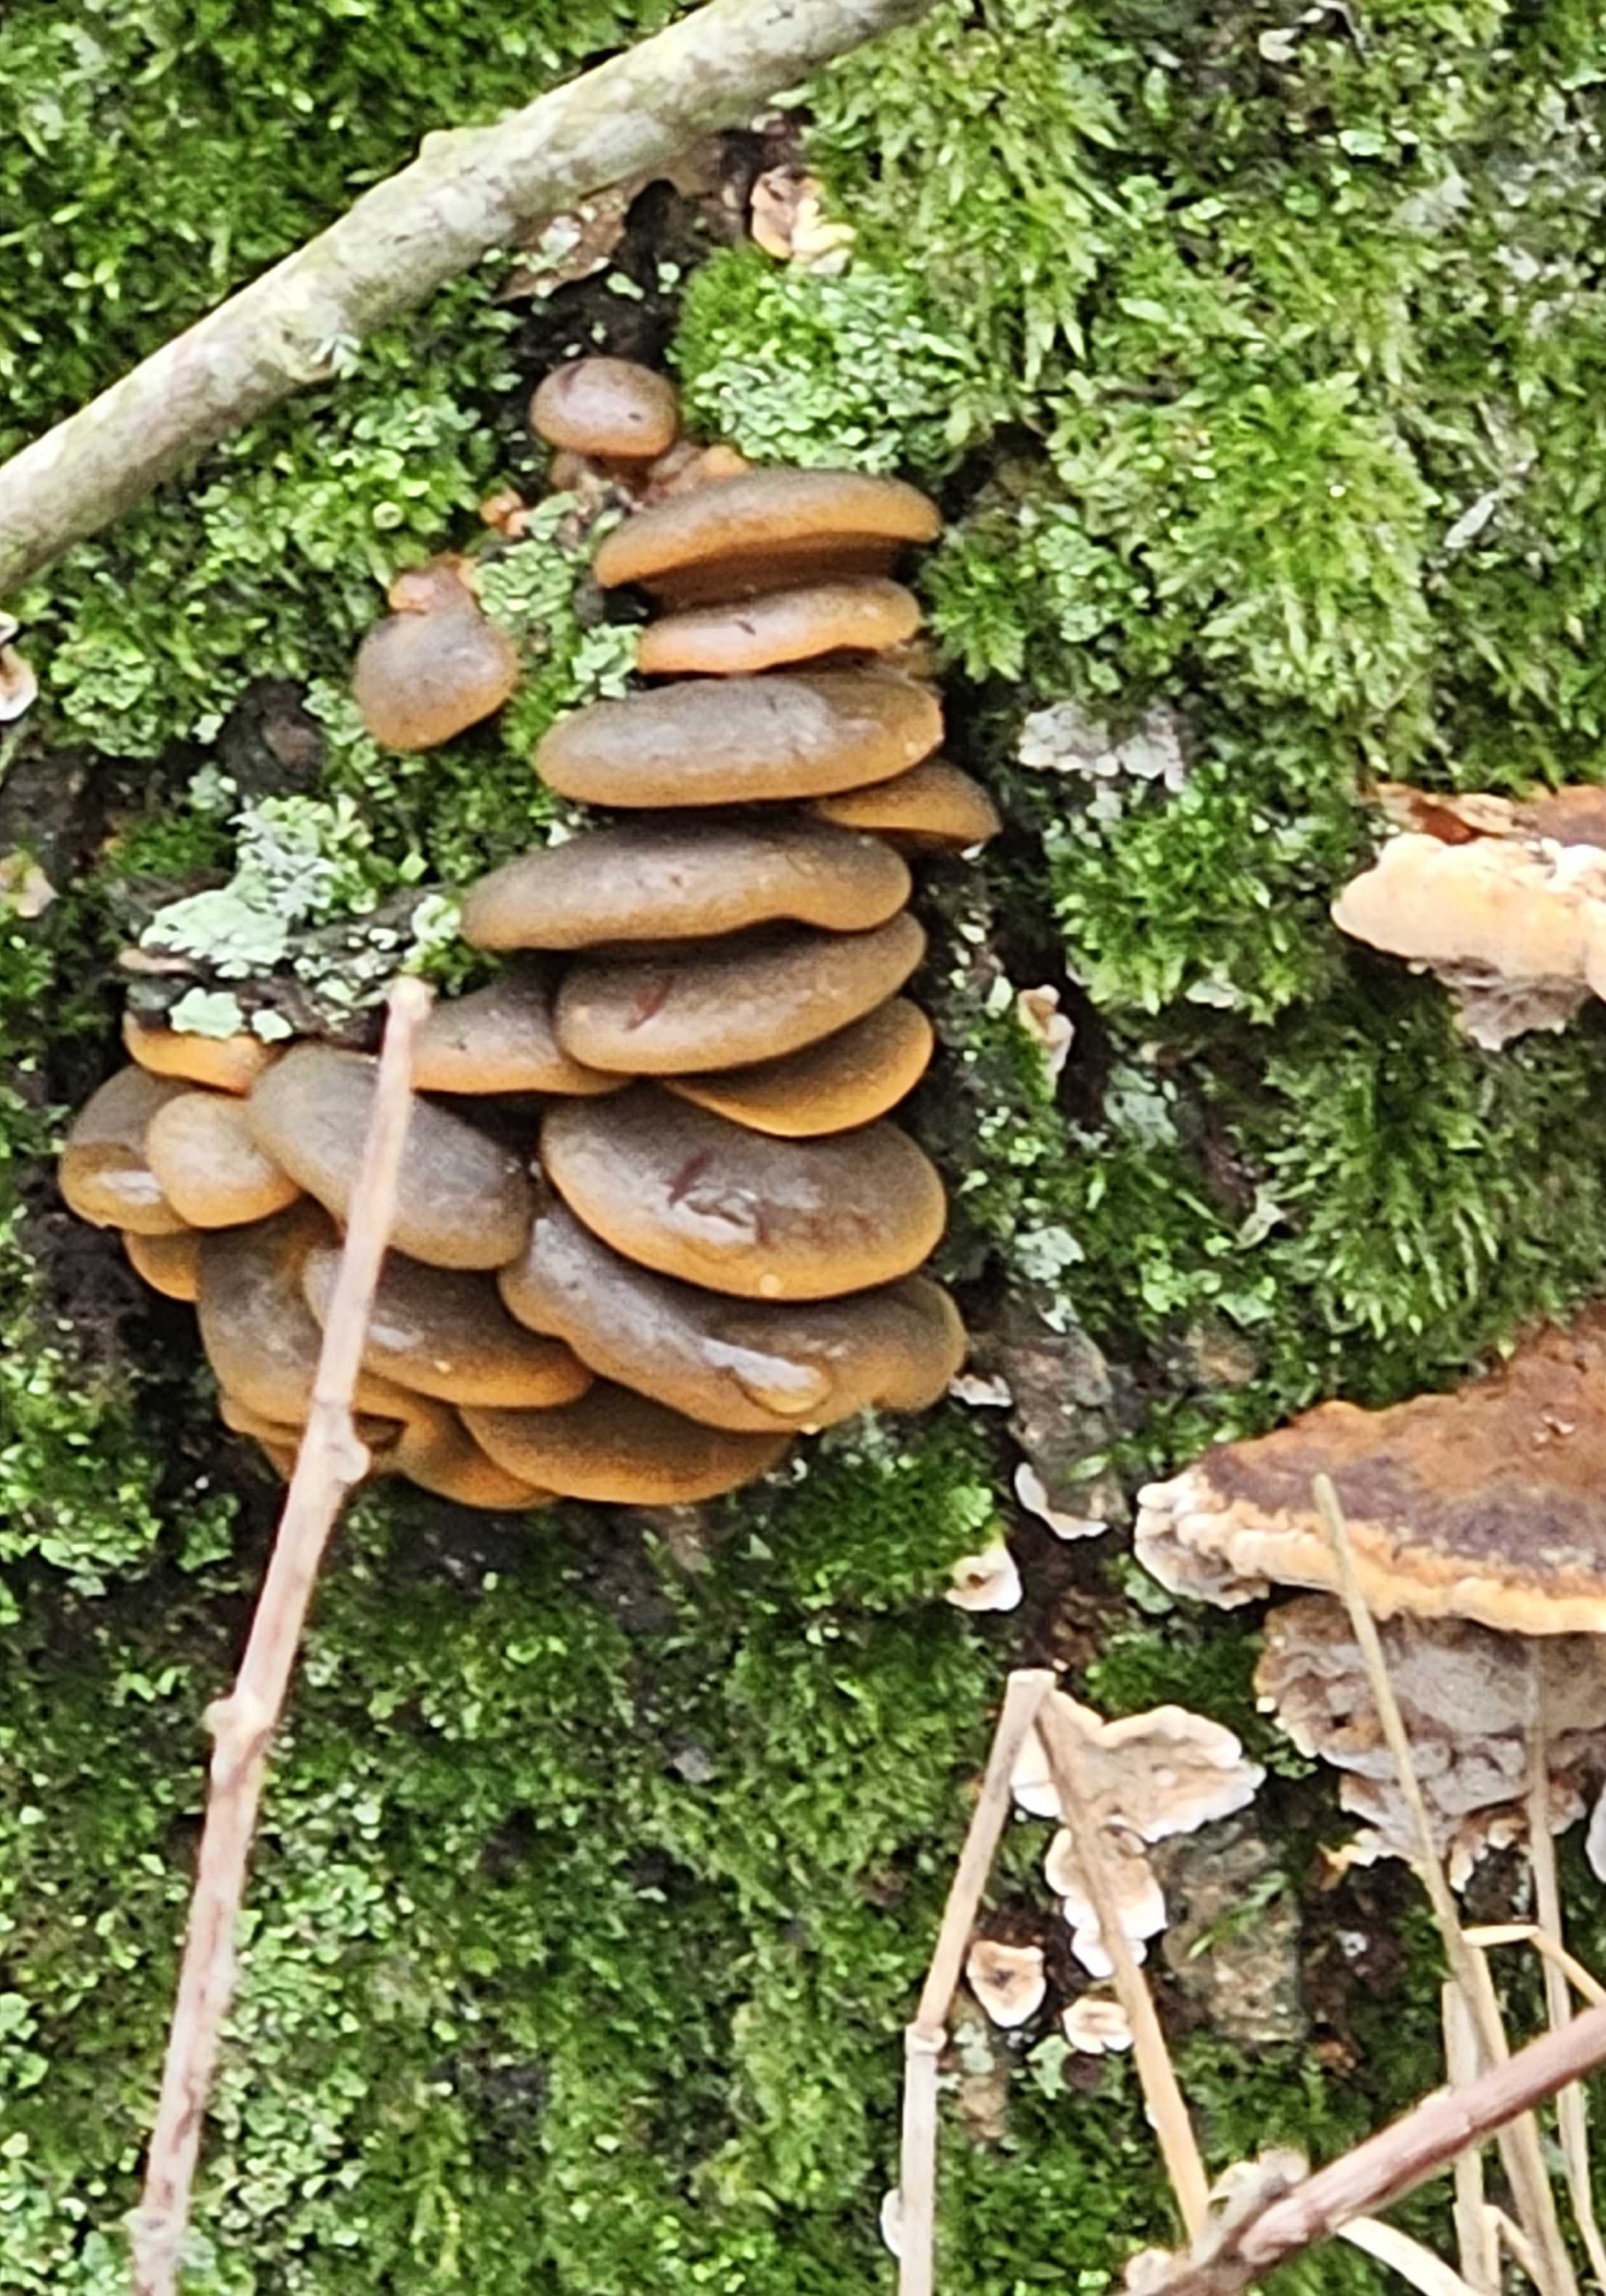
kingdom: Fungi
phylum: Basidiomycota
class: Agaricomycetes
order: Agaricales
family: Sarcomyxaceae
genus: Sarcomyxa
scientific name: Sarcomyxa serotina
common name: gummihat
